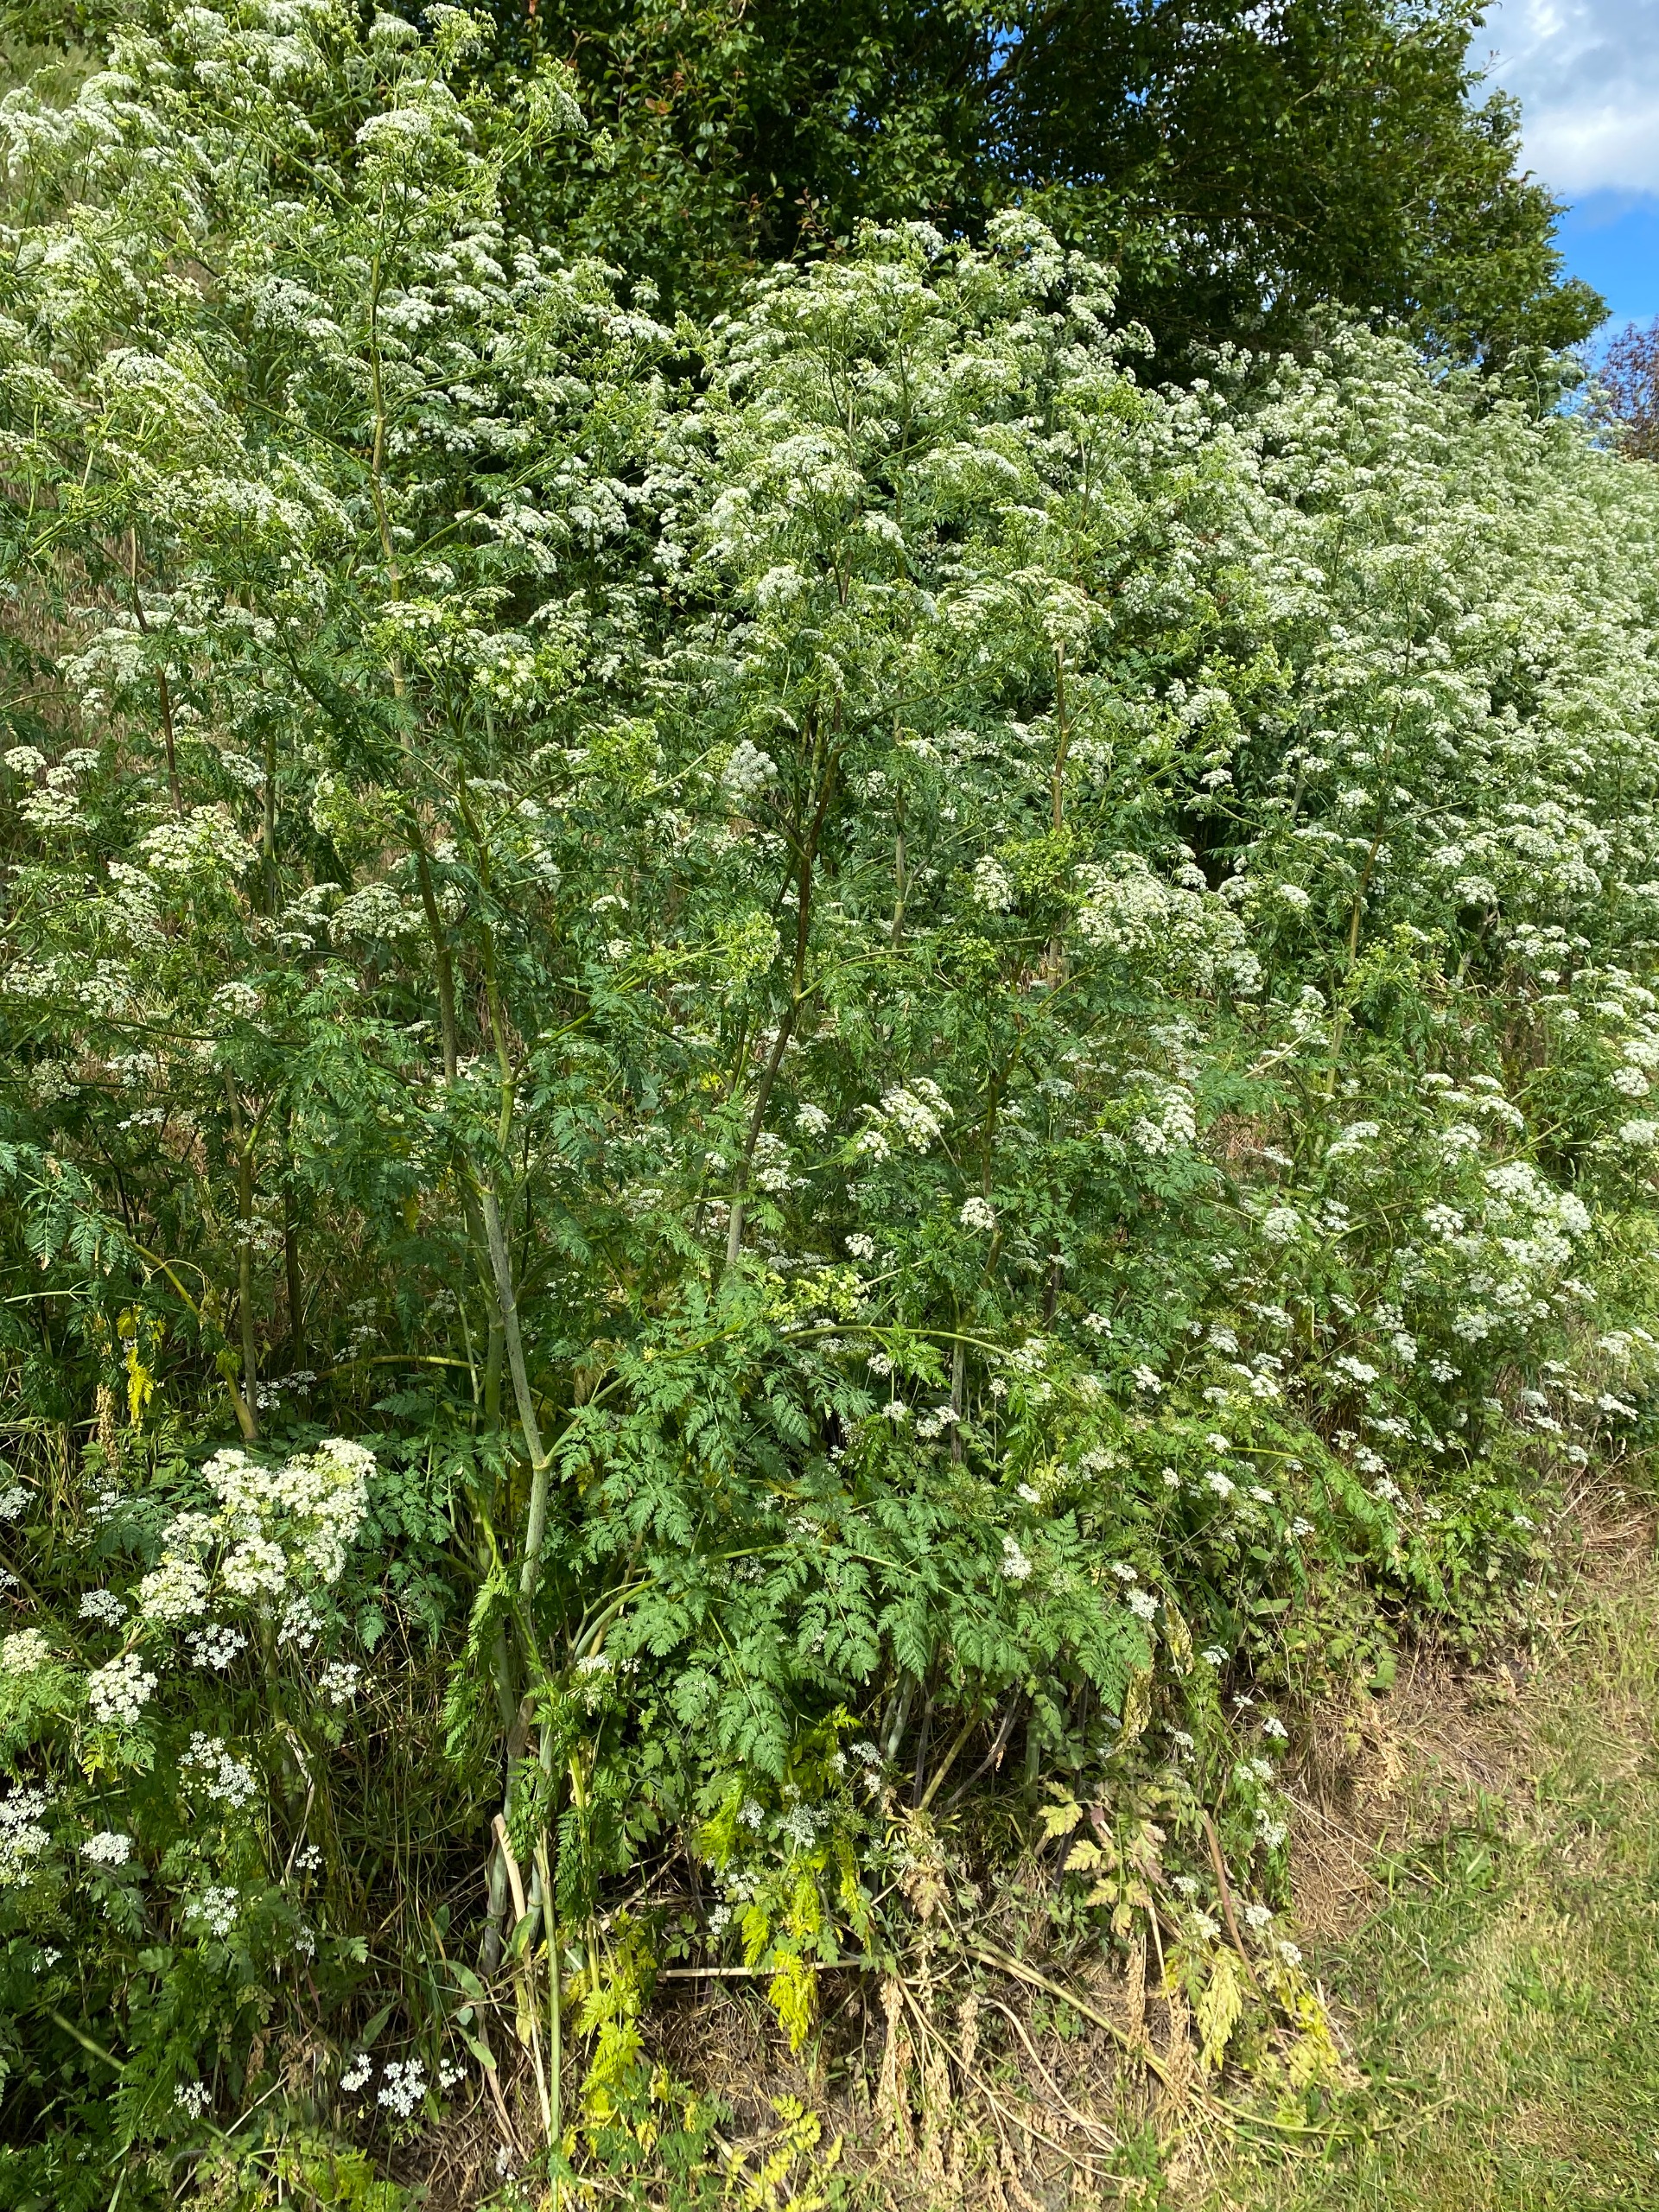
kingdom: Plantae
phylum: Tracheophyta
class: Magnoliopsida
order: Apiales
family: Apiaceae
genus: Conium
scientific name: Conium maculatum
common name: Skarntyde
